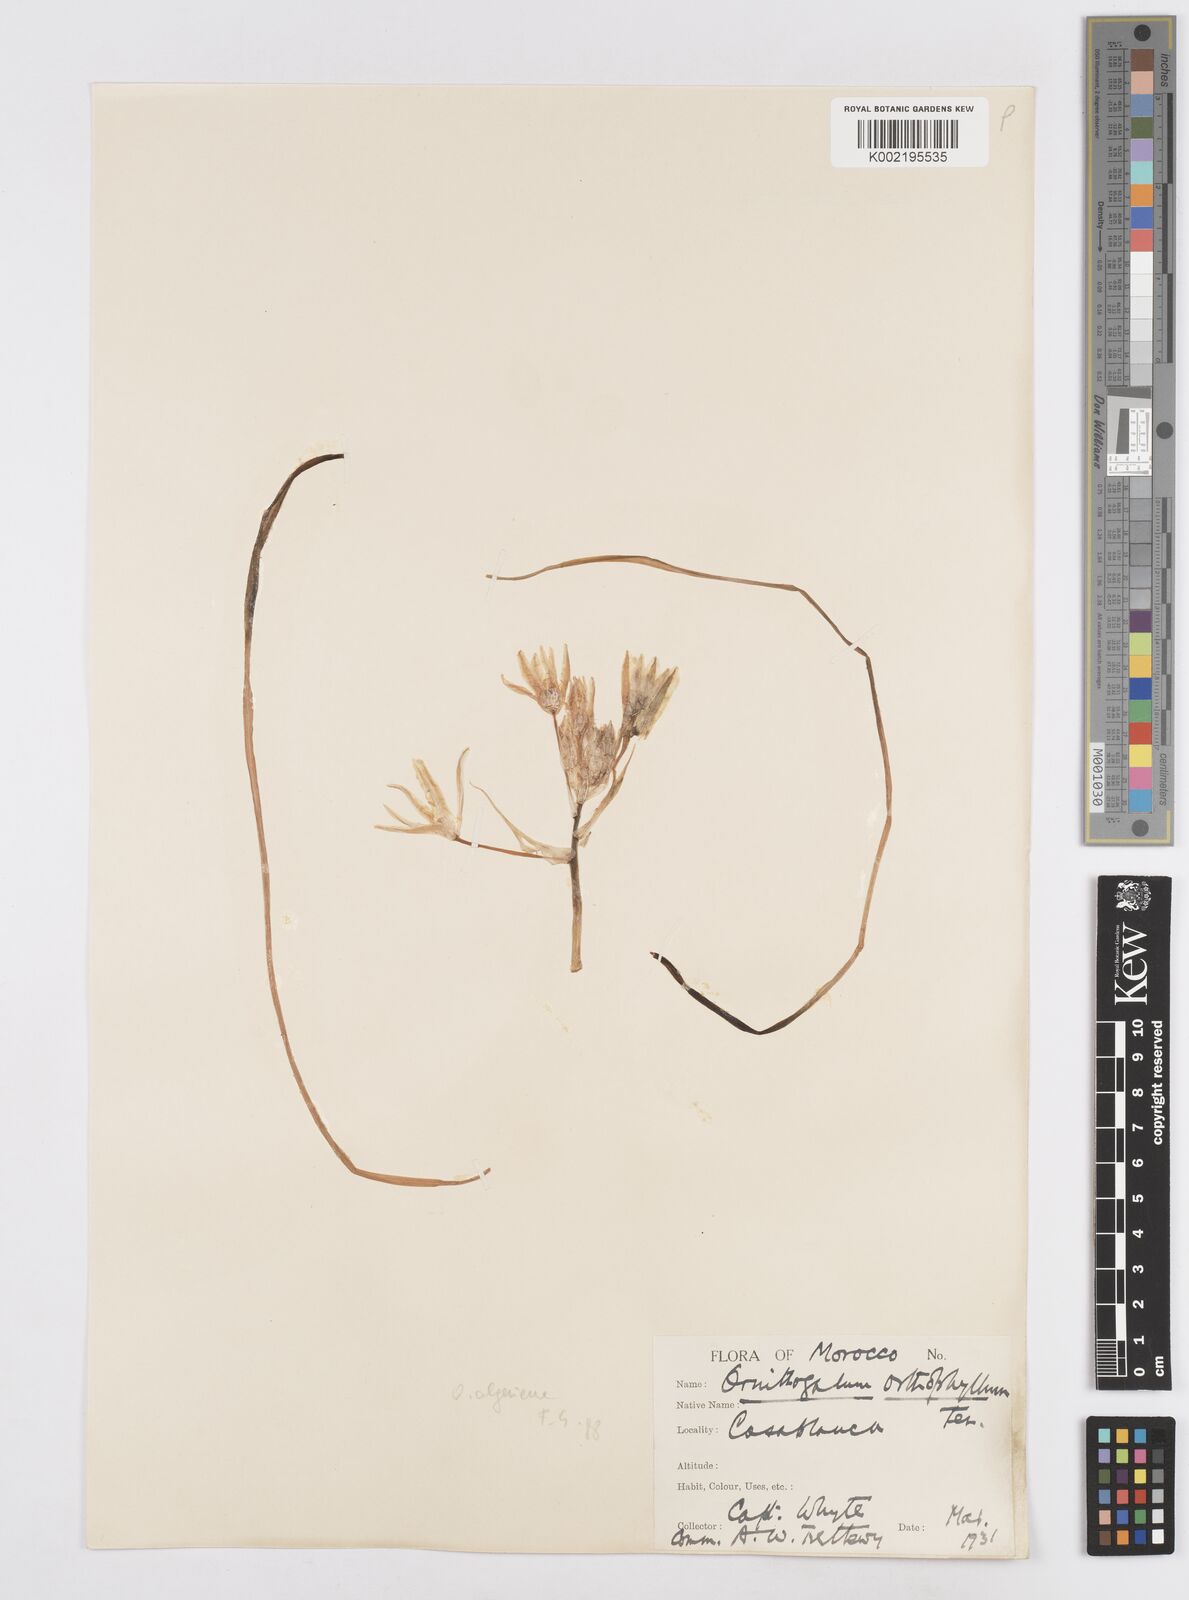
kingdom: Plantae
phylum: Tracheophyta
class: Liliopsida
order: Asparagales
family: Asparagaceae
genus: Ornithogalum
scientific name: Ornithogalum baeticum
